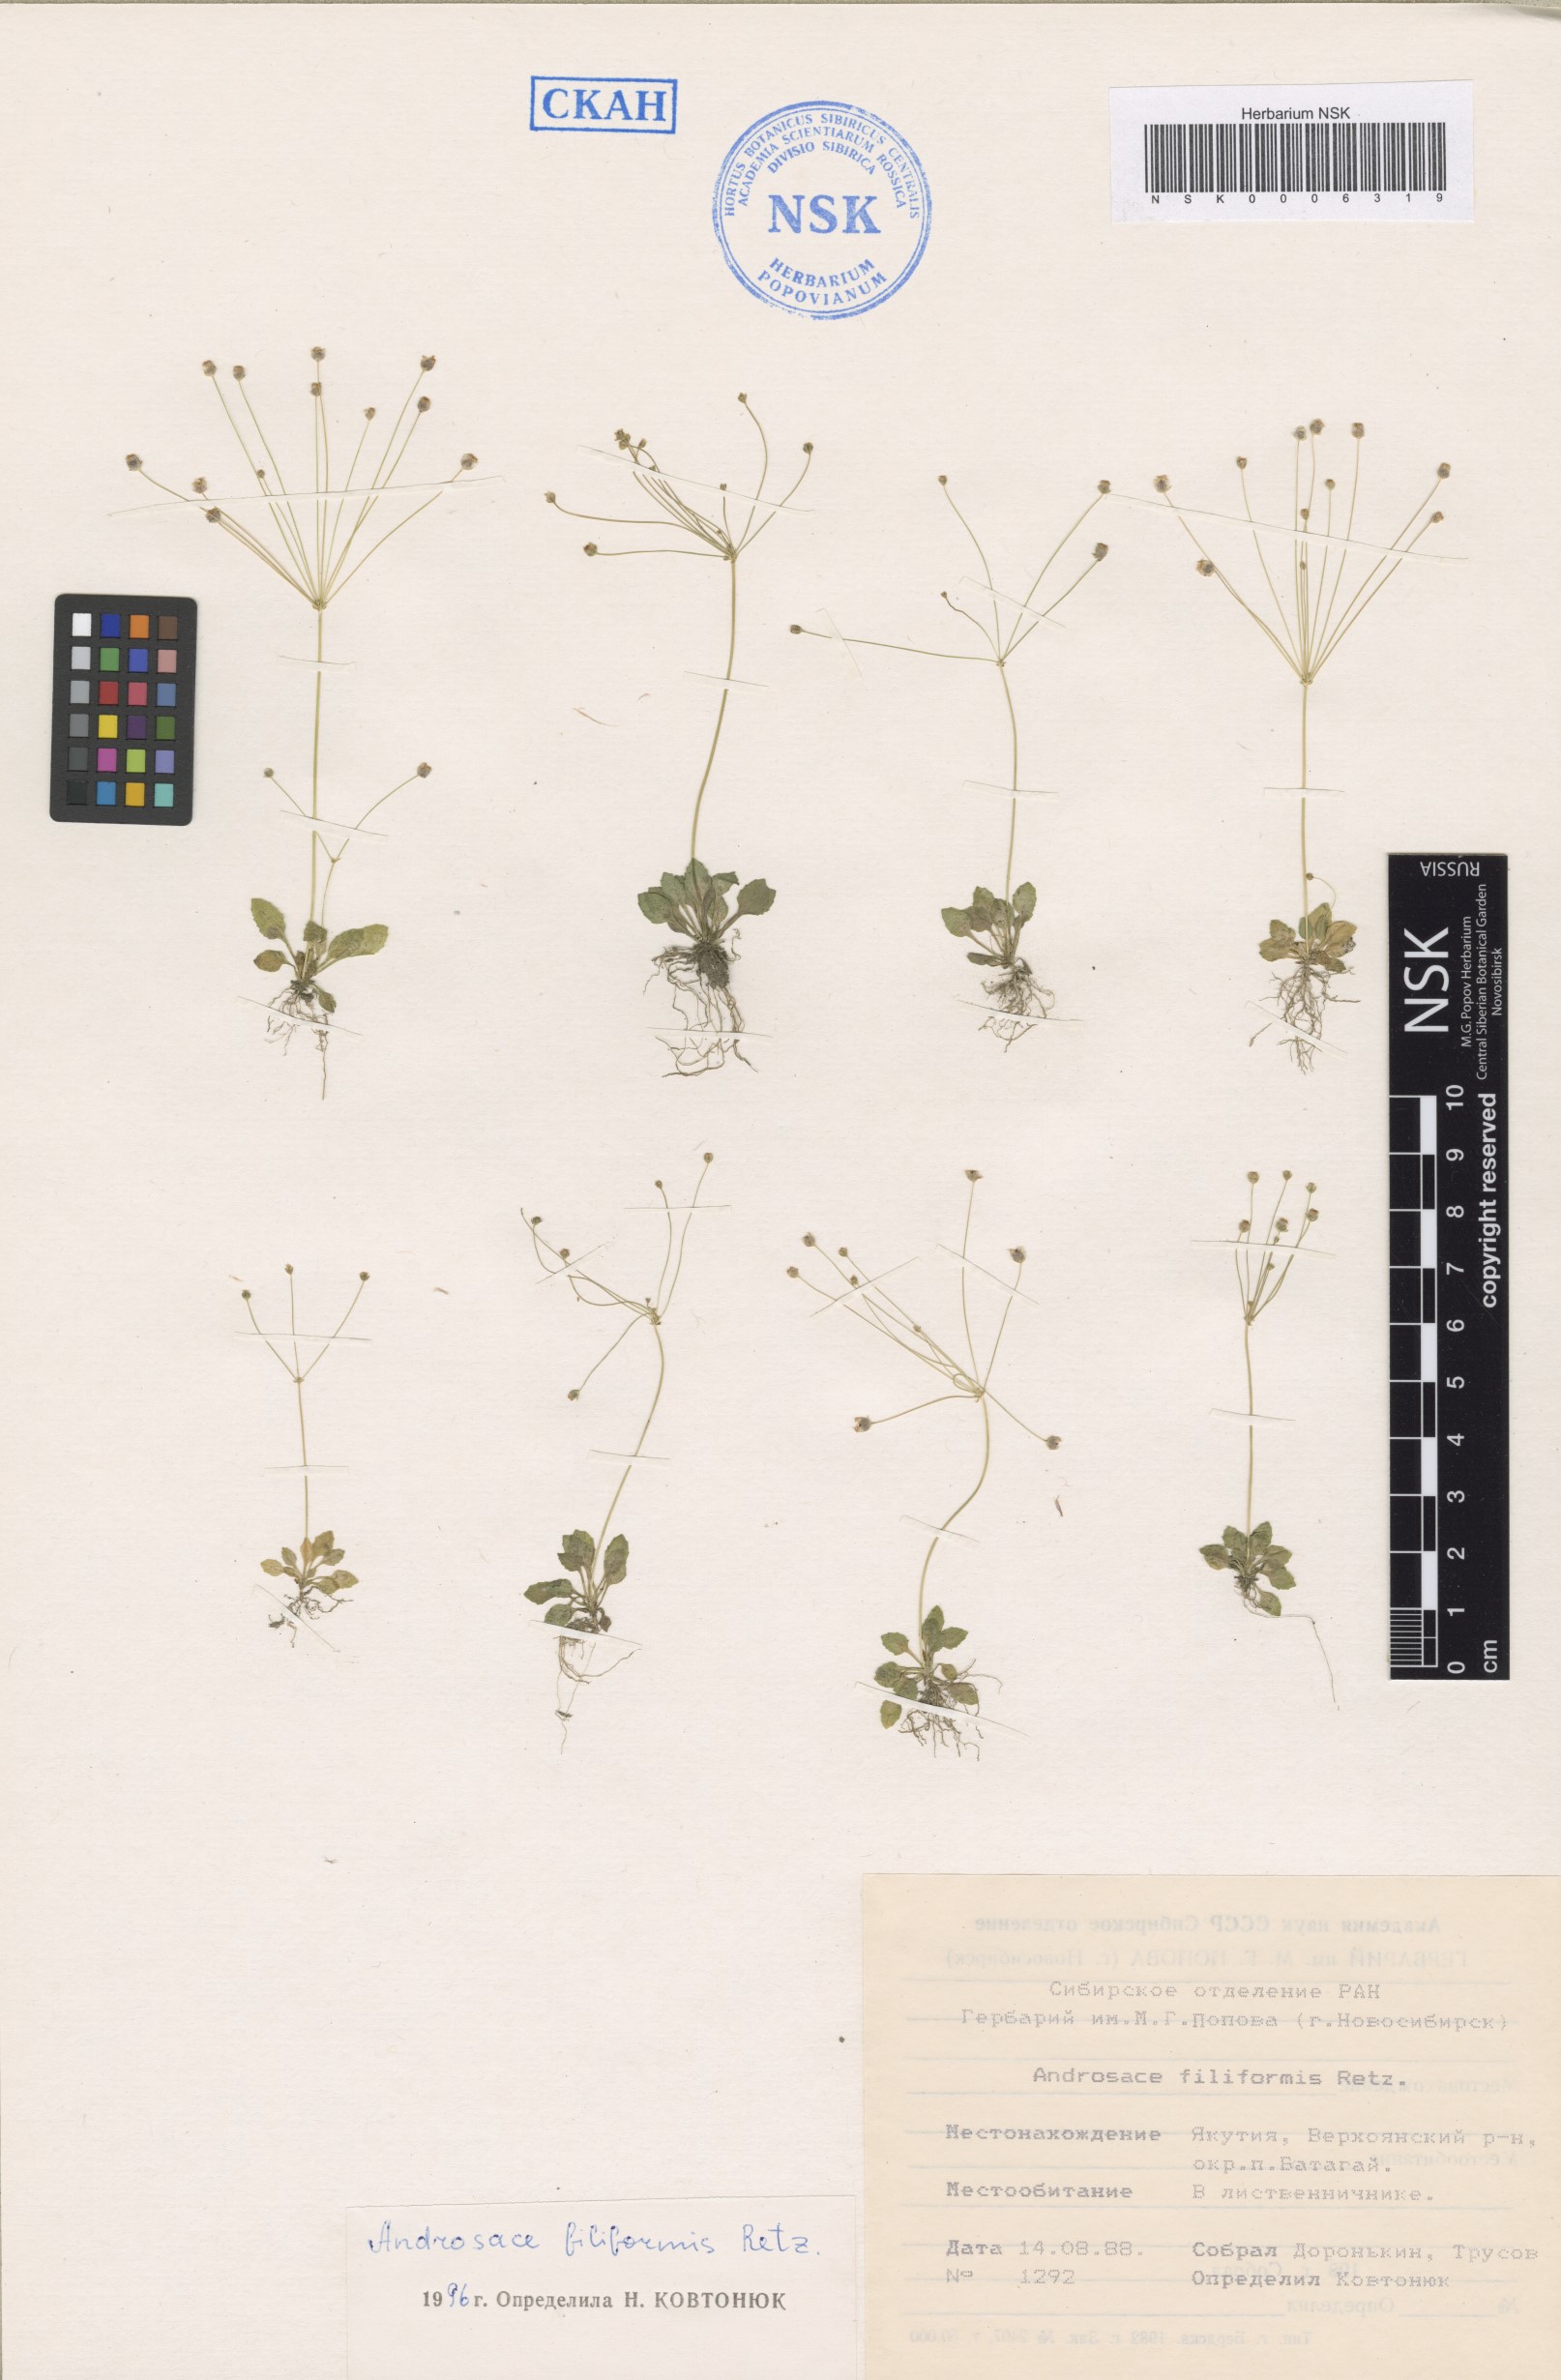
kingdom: Plantae
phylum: Tracheophyta
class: Magnoliopsida
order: Ericales
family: Primulaceae
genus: Androsace
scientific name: Androsace filiformis
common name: Filiform rock jasmine
